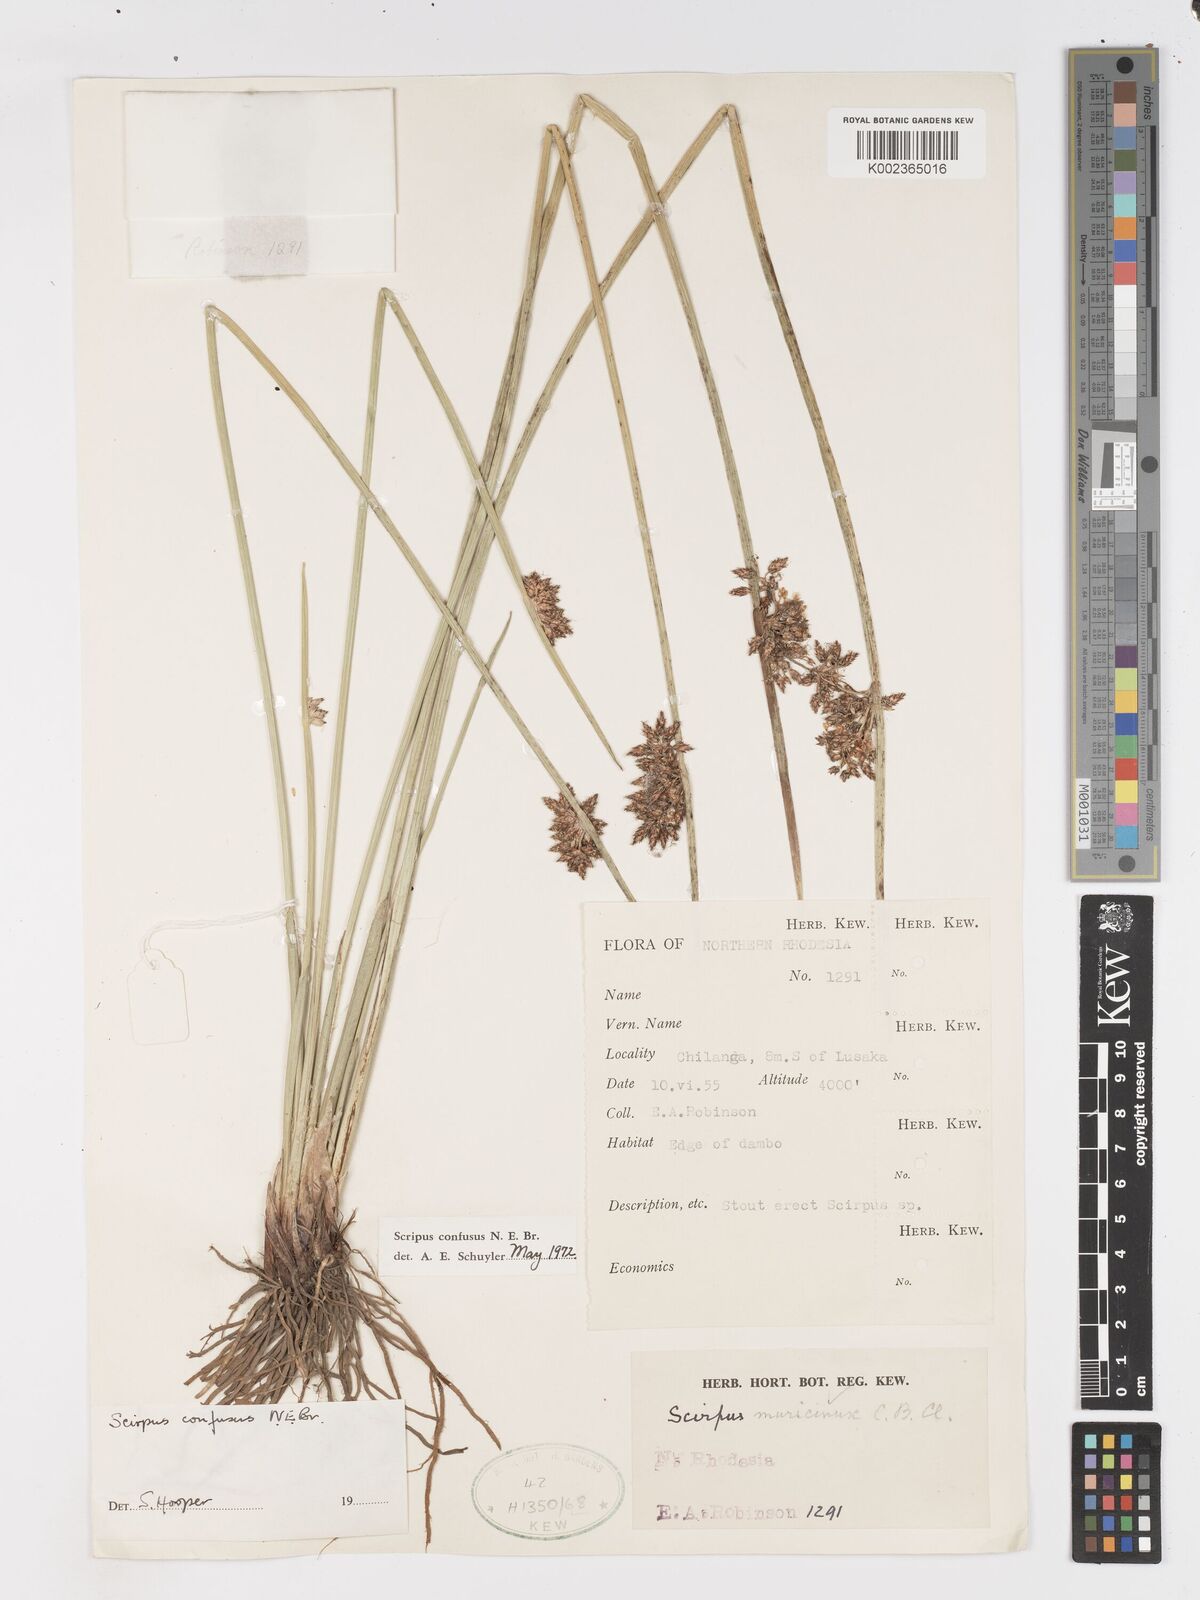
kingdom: Plantae
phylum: Tracheophyta
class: Liliopsida
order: Poales
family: Cyperaceae
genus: Schoenoplectiella
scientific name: Schoenoplectiella confusa
